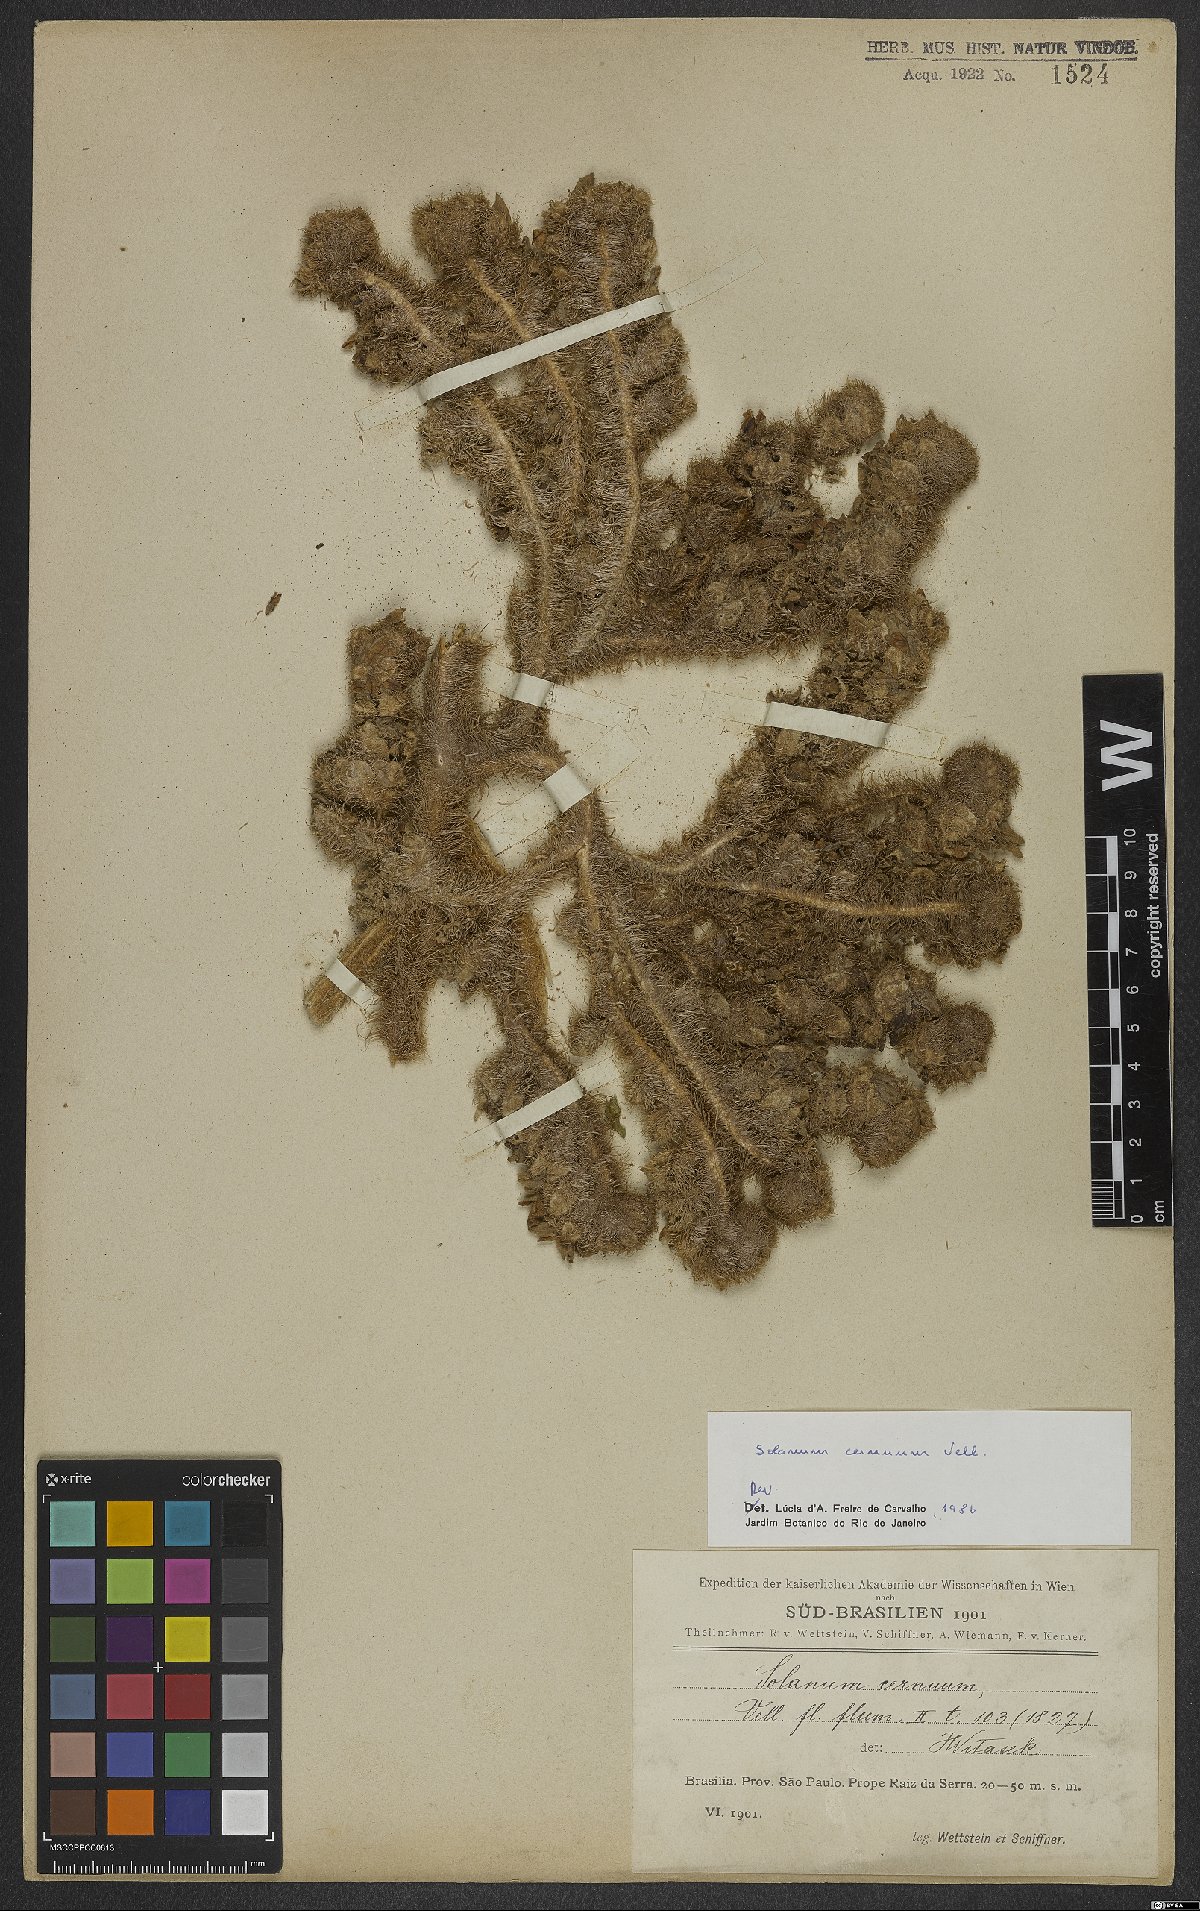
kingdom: Plantae
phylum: Tracheophyta
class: Magnoliopsida
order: Solanales
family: Solanaceae
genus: Solanum
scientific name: Solanum cernuum
